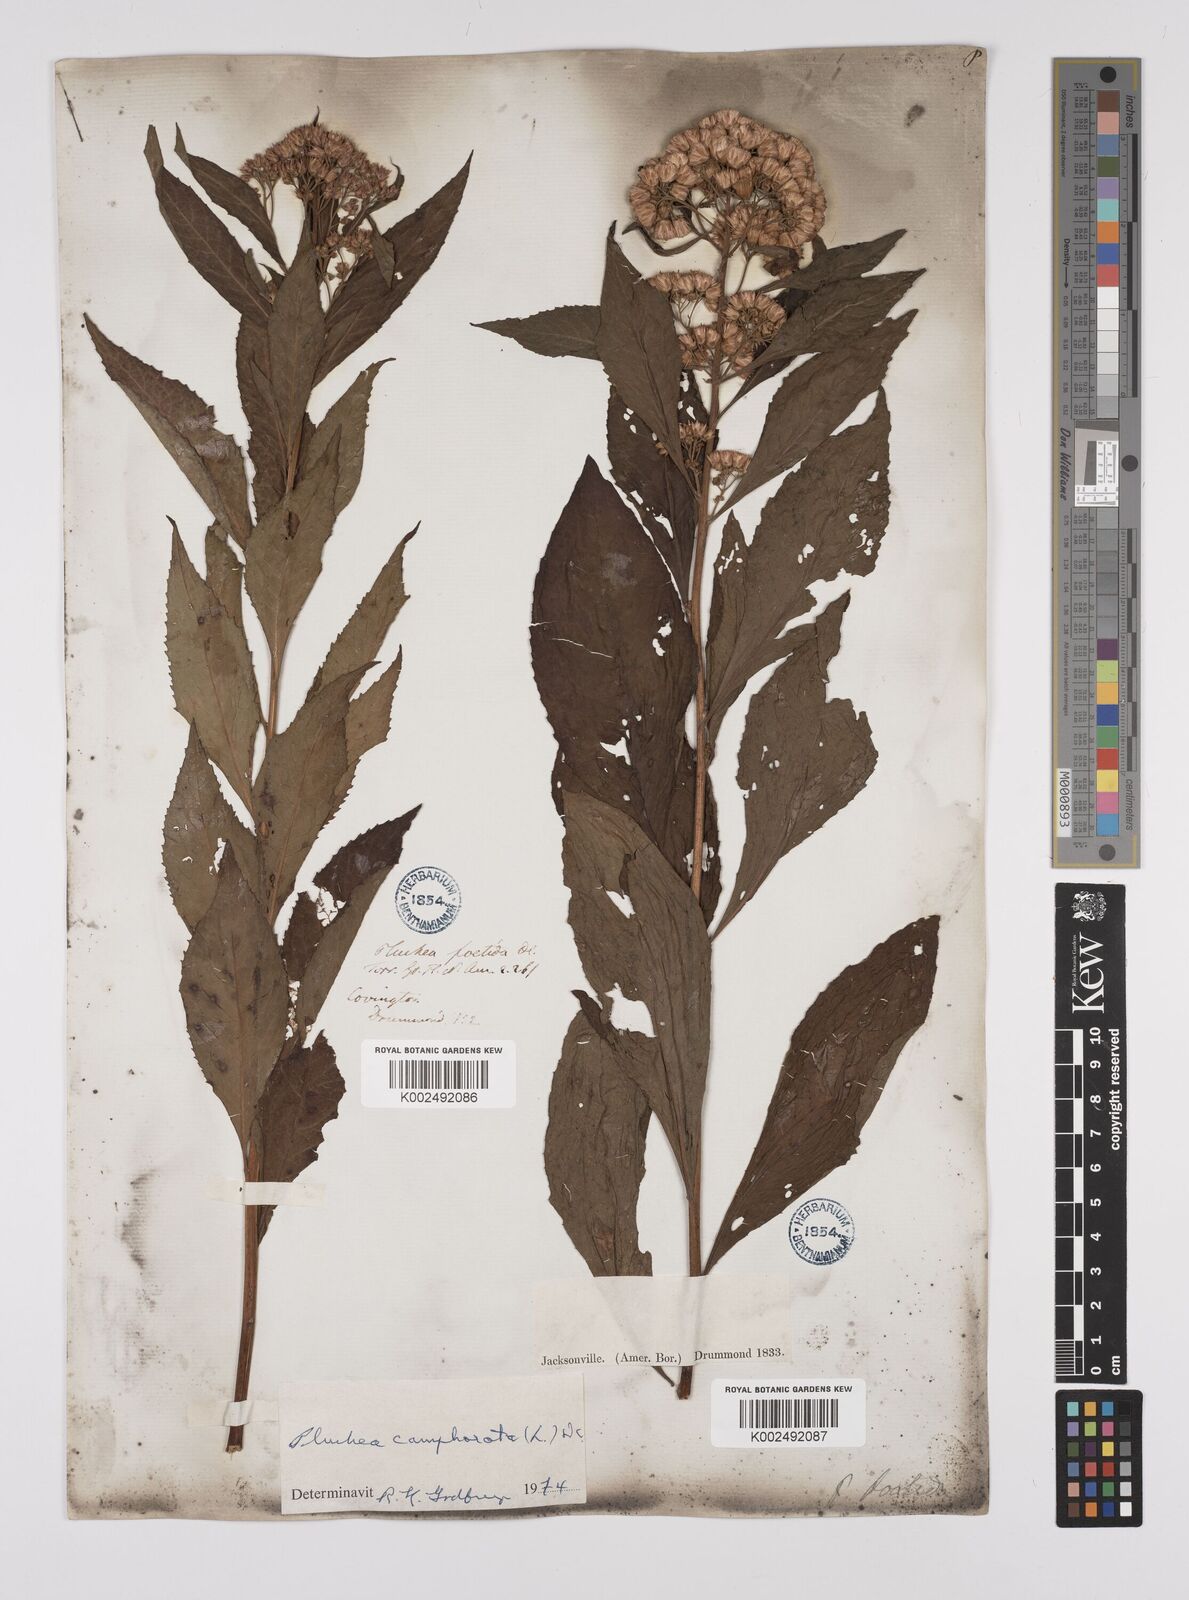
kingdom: Plantae
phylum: Tracheophyta
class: Magnoliopsida
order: Asterales
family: Asteraceae
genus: Pluchea
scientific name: Pluchea camphorata
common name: Camphor pluchea
